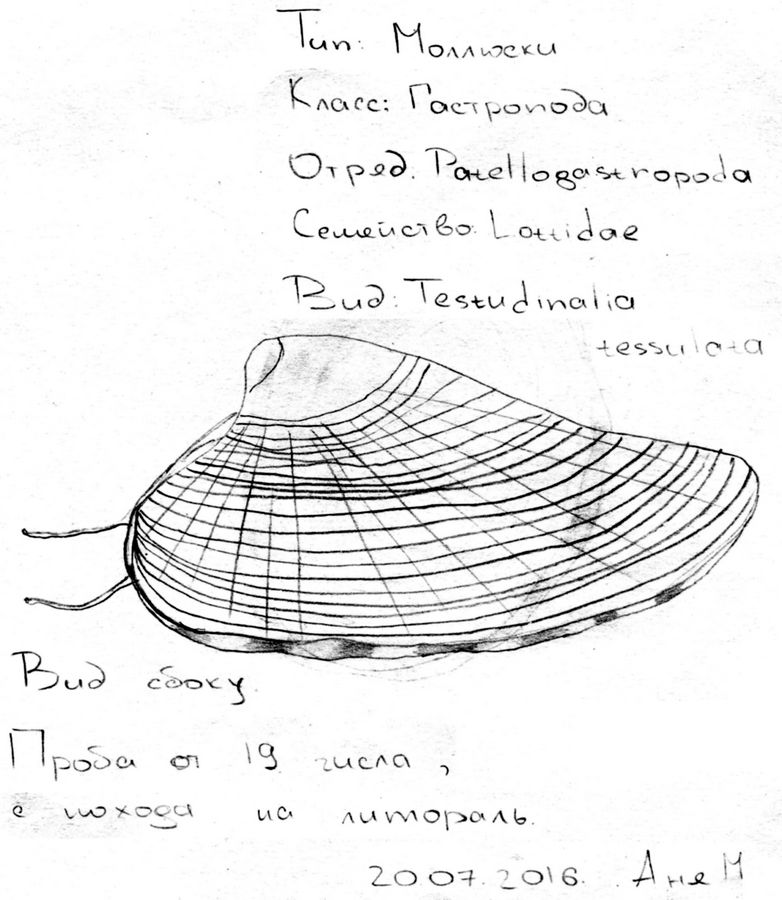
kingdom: Animalia
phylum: Mollusca
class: Gastropoda
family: Lottiidae
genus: Testudinalia
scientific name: Testudinalia testudinalis
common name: Common tortoiseshell limpet
